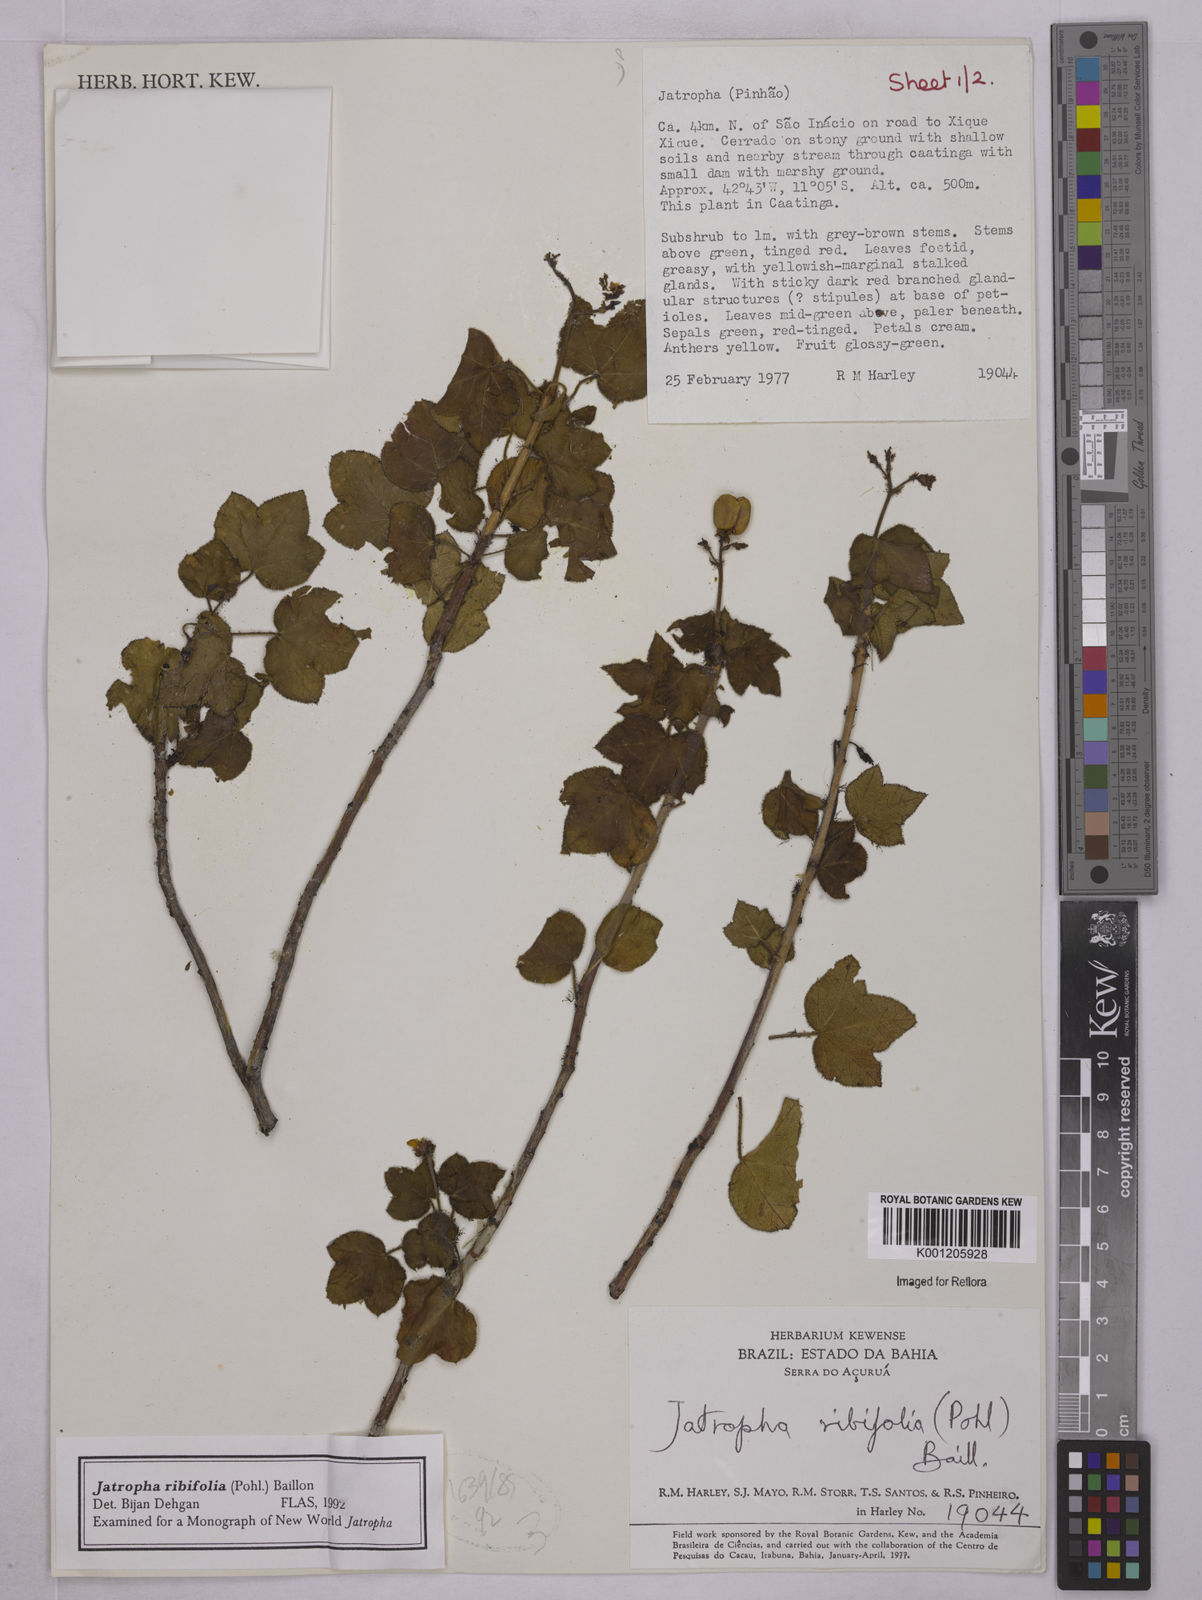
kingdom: Plantae
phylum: Tracheophyta
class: Magnoliopsida
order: Malpighiales
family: Euphorbiaceae
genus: Jatropha
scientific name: Jatropha ribifolia
